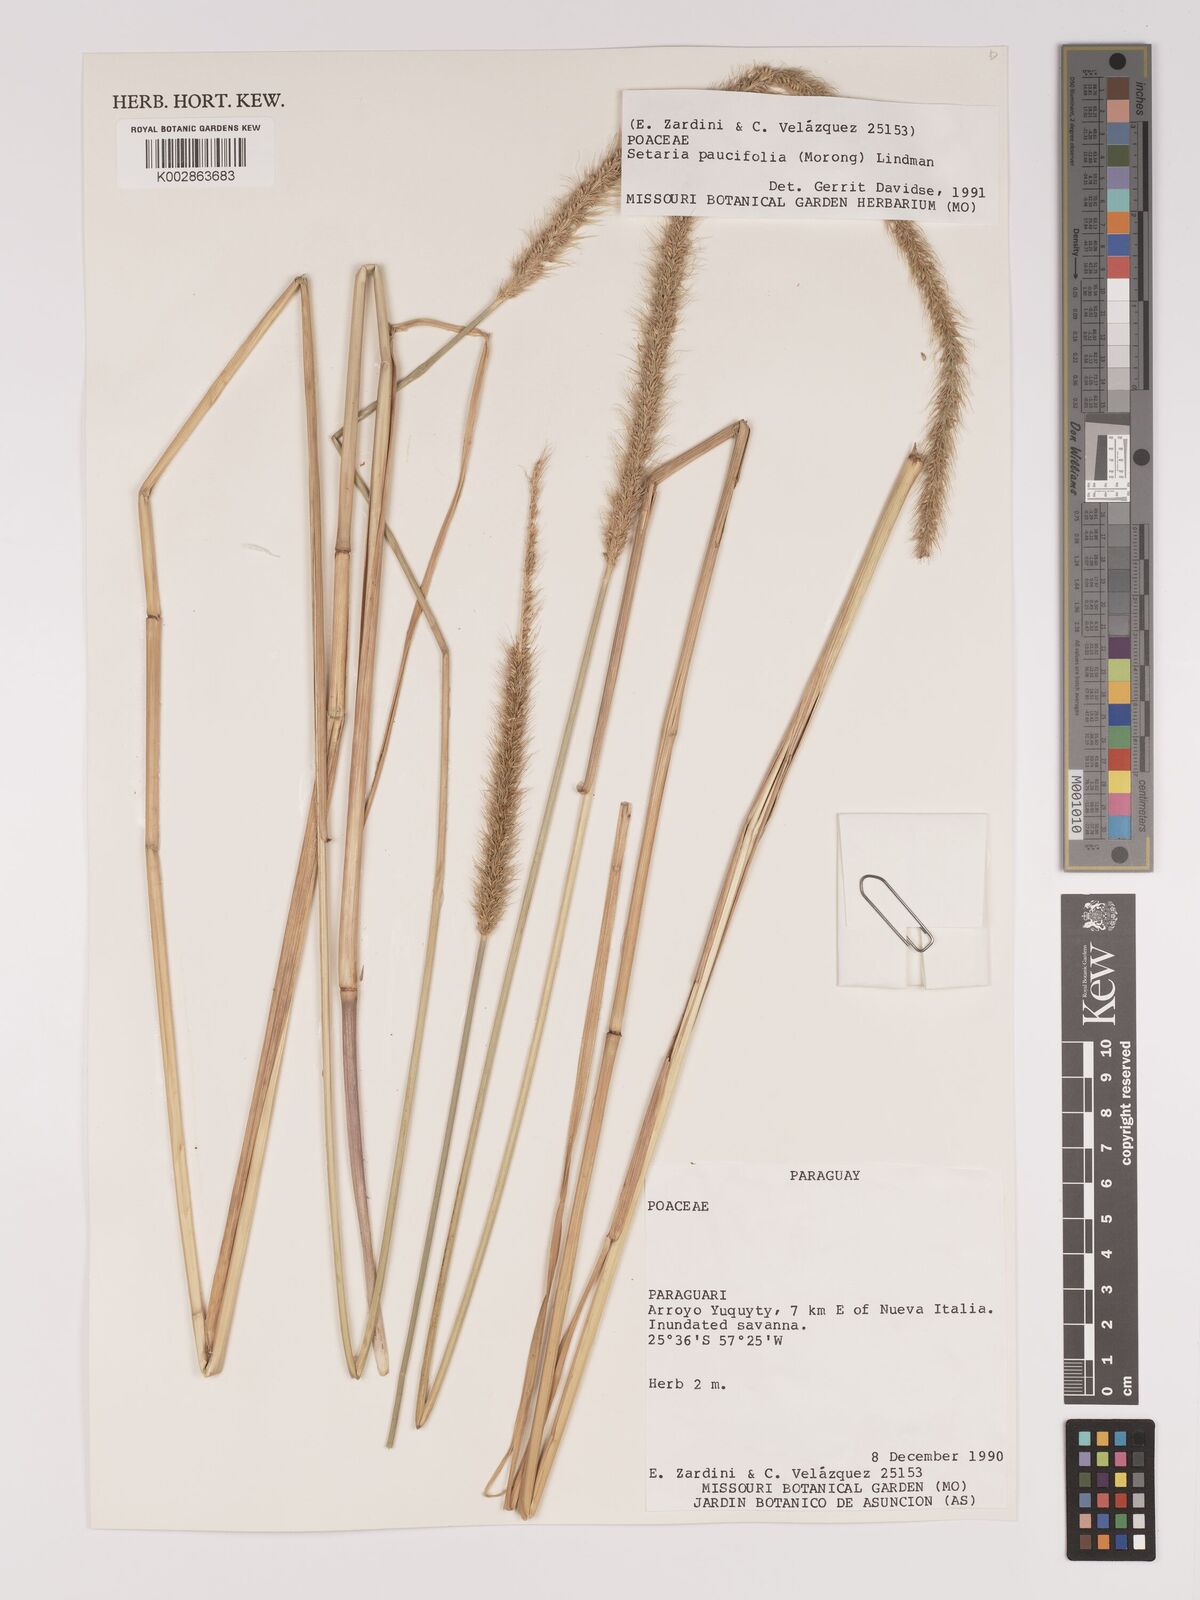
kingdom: Plantae
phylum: Tracheophyta
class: Liliopsida
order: Poales
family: Poaceae
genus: Setaria
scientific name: Setaria paucifolia
